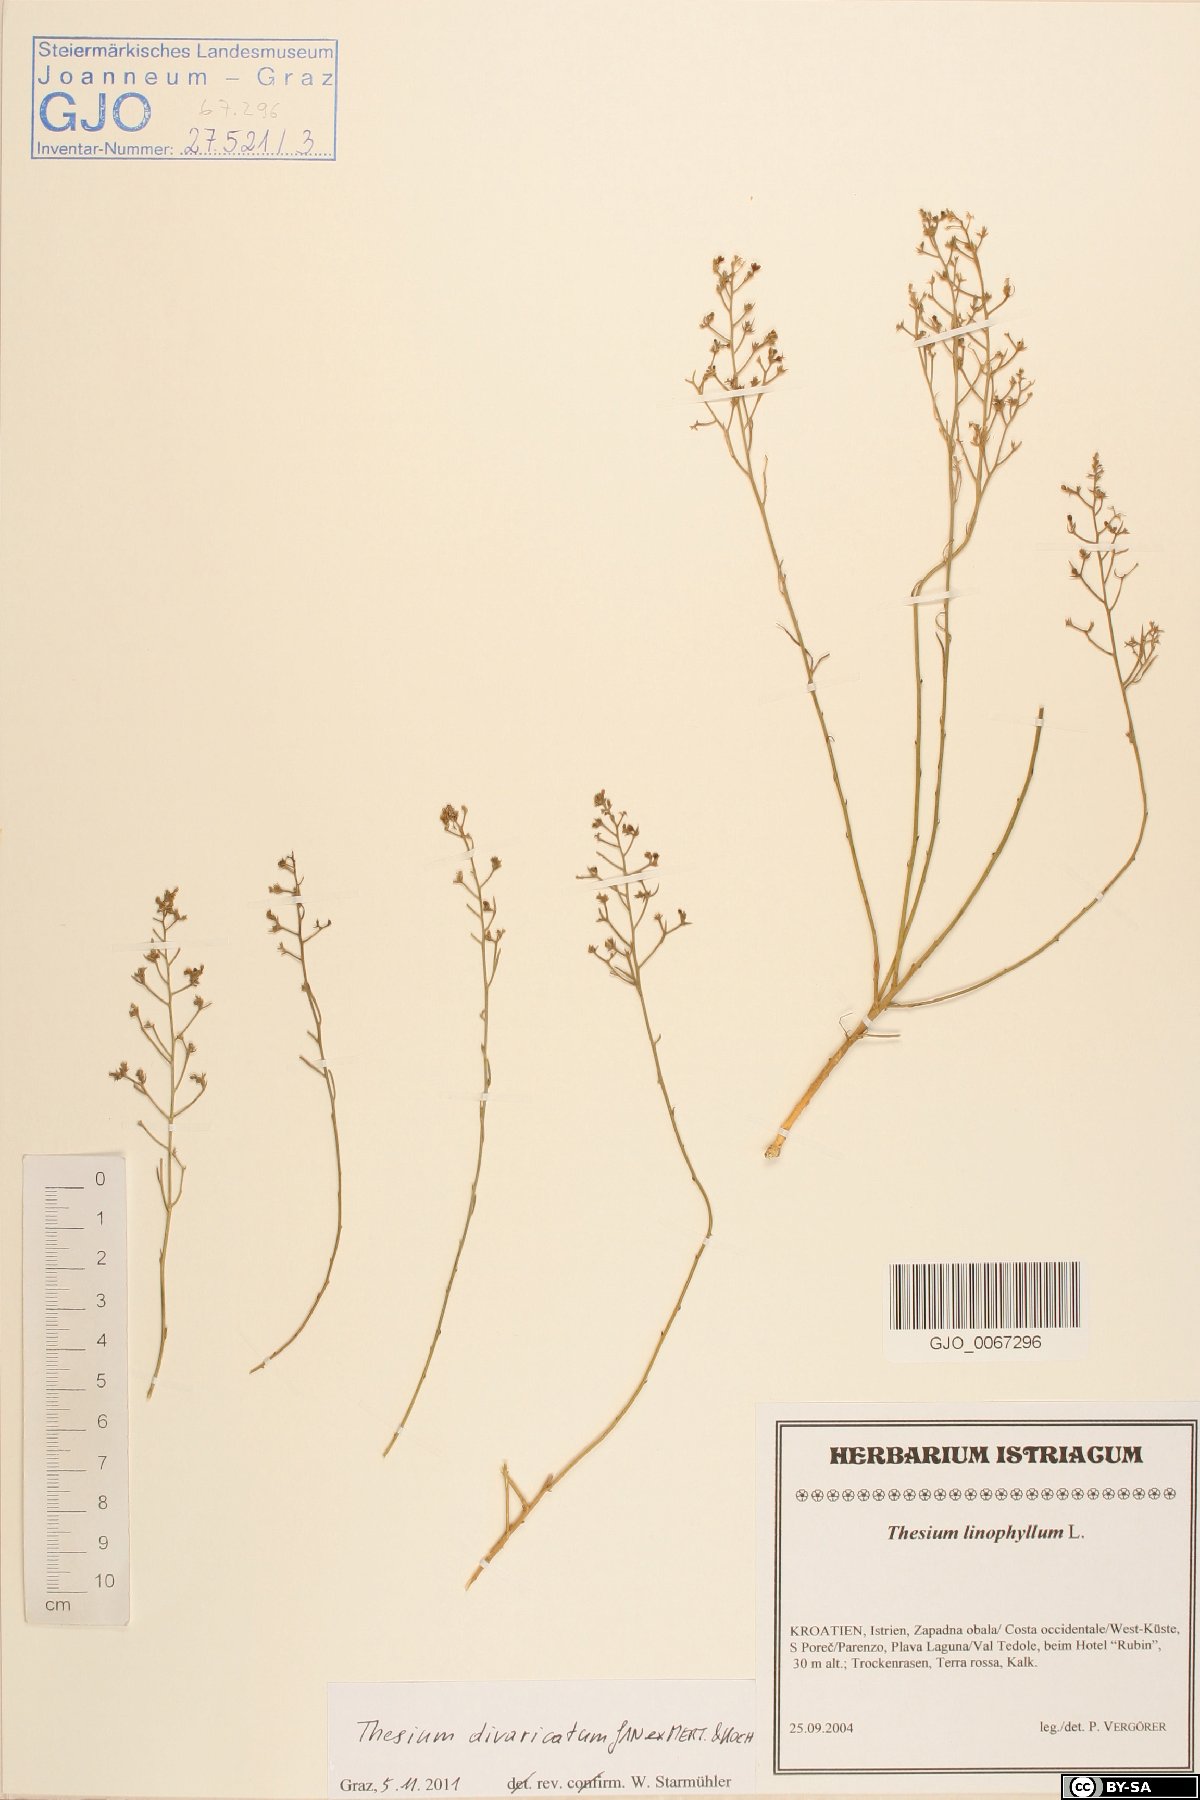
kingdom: Plantae
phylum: Tracheophyta
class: Magnoliopsida
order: Santalales
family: Thesiaceae
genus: Thesium
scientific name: Thesium divaricatum
